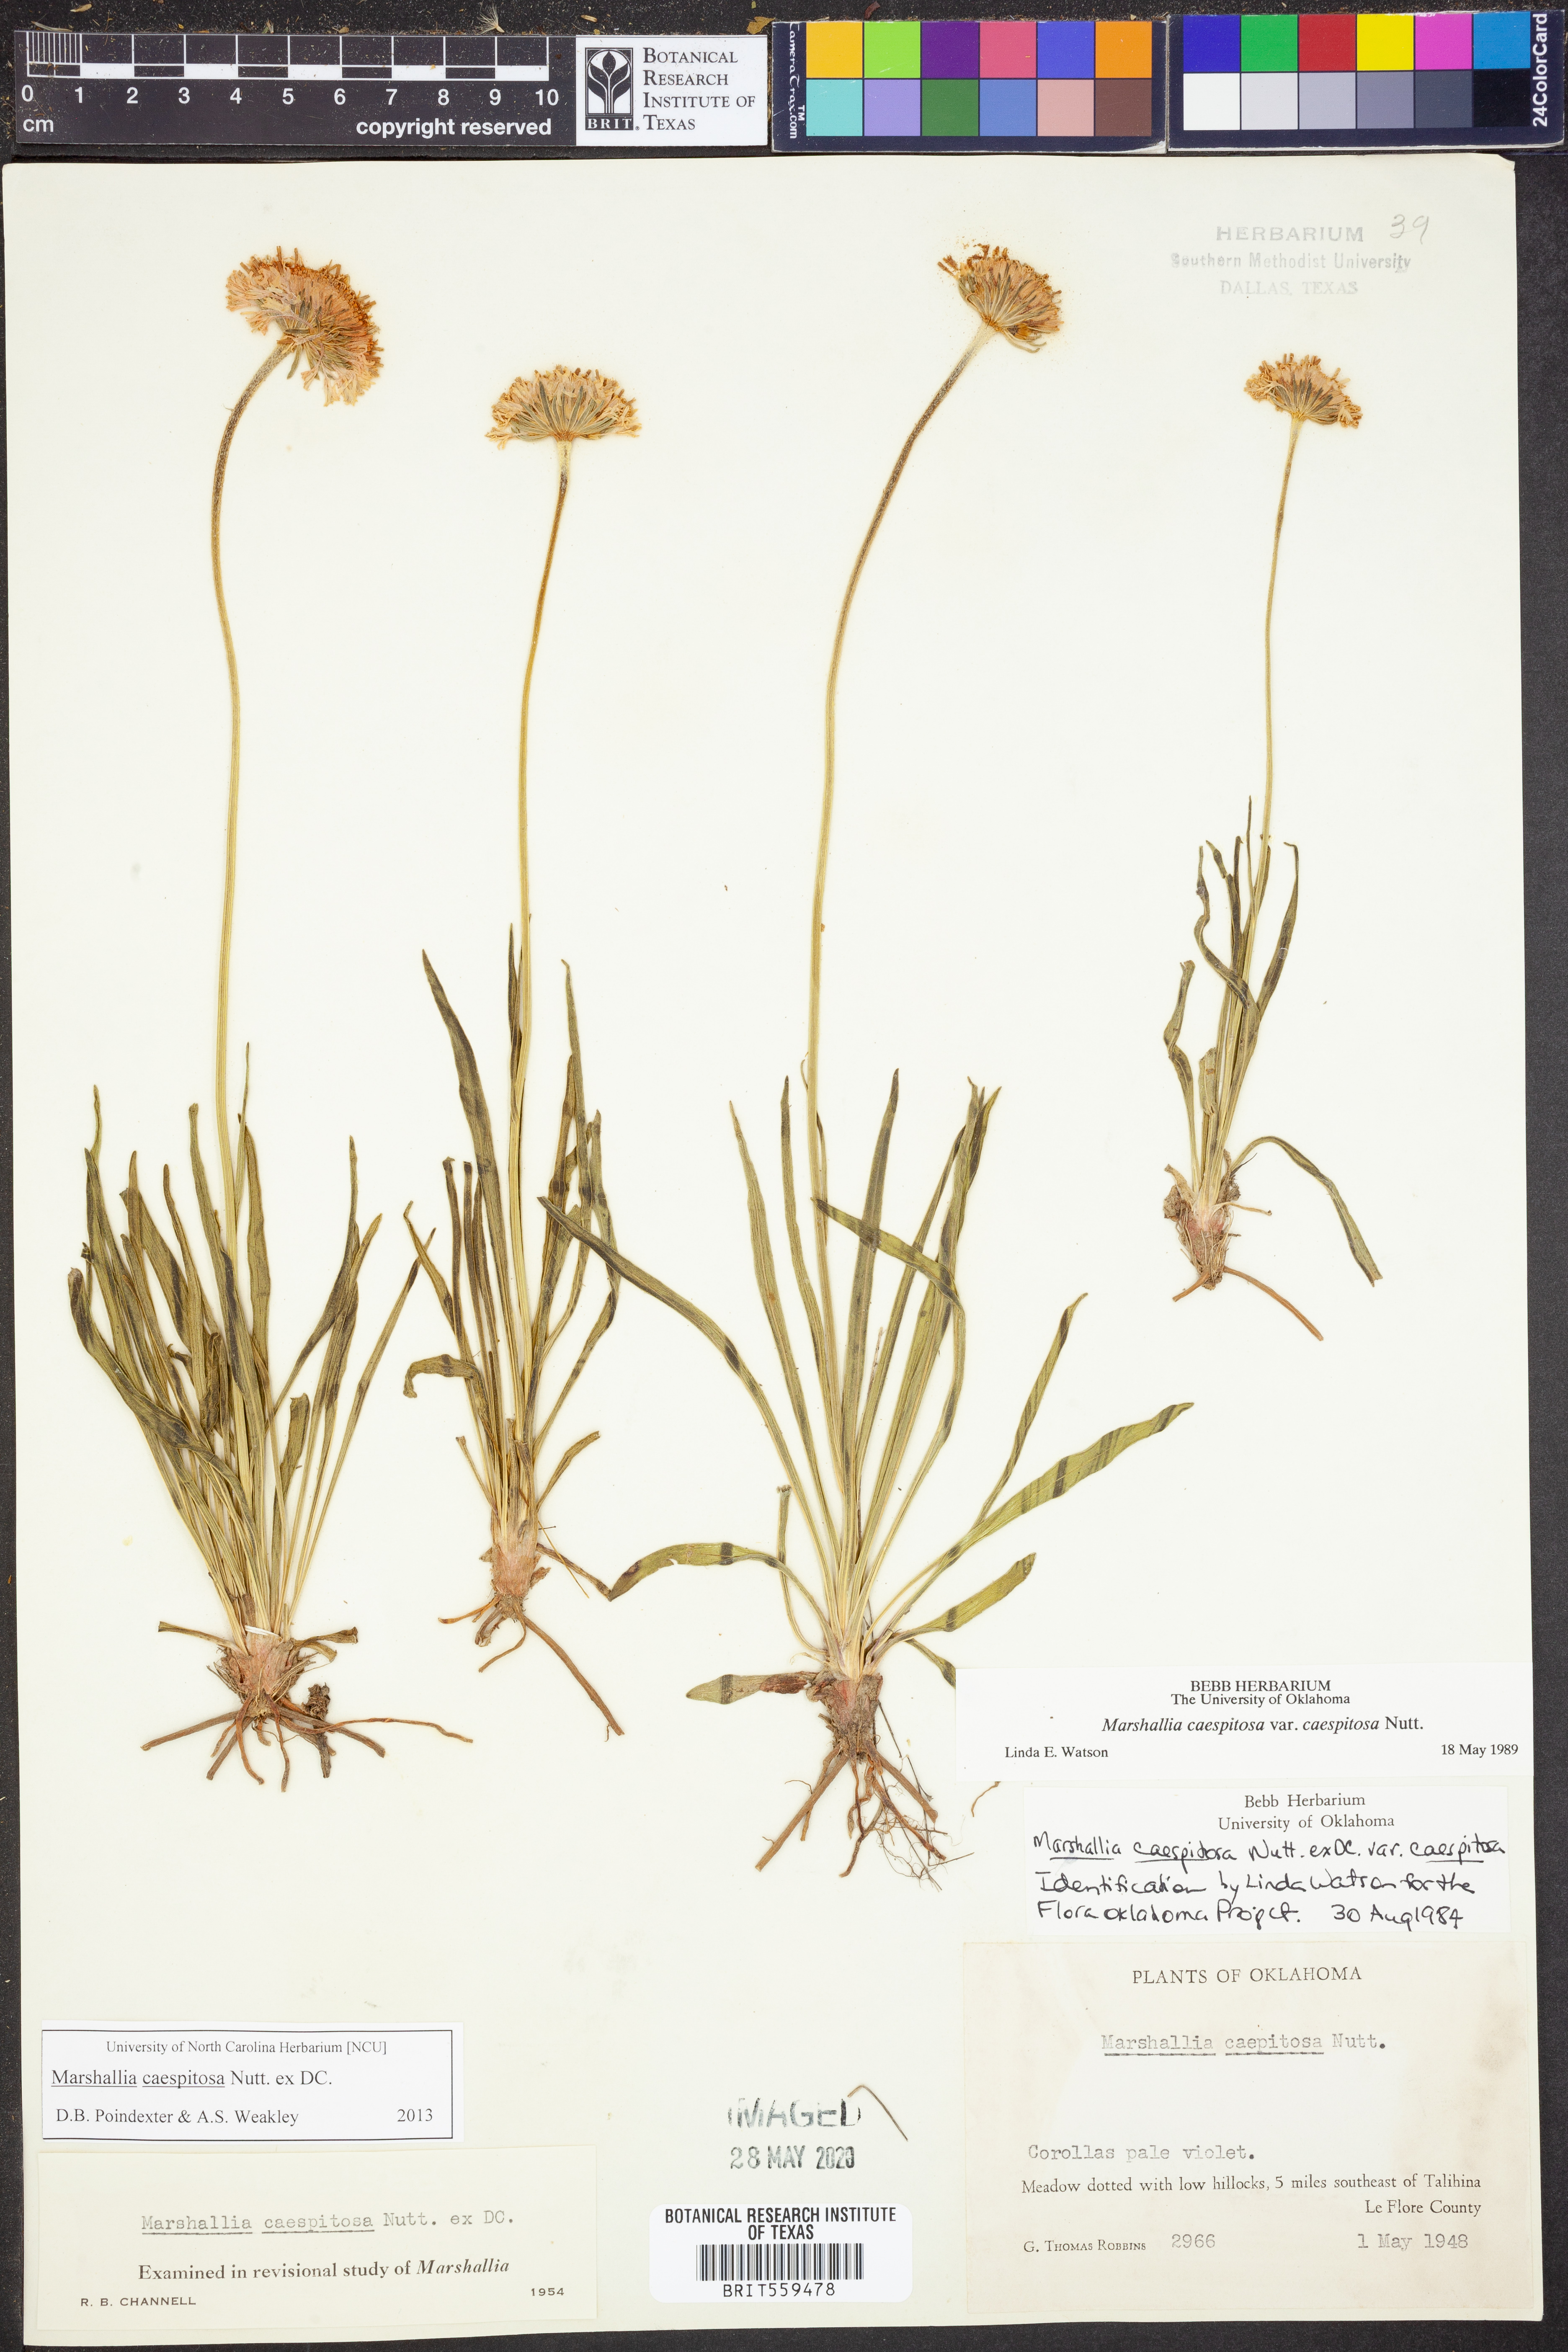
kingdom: Plantae
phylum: Tracheophyta
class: Magnoliopsida
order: Asterales
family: Asteraceae
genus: Marshallia
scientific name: Marshallia caespitosa
